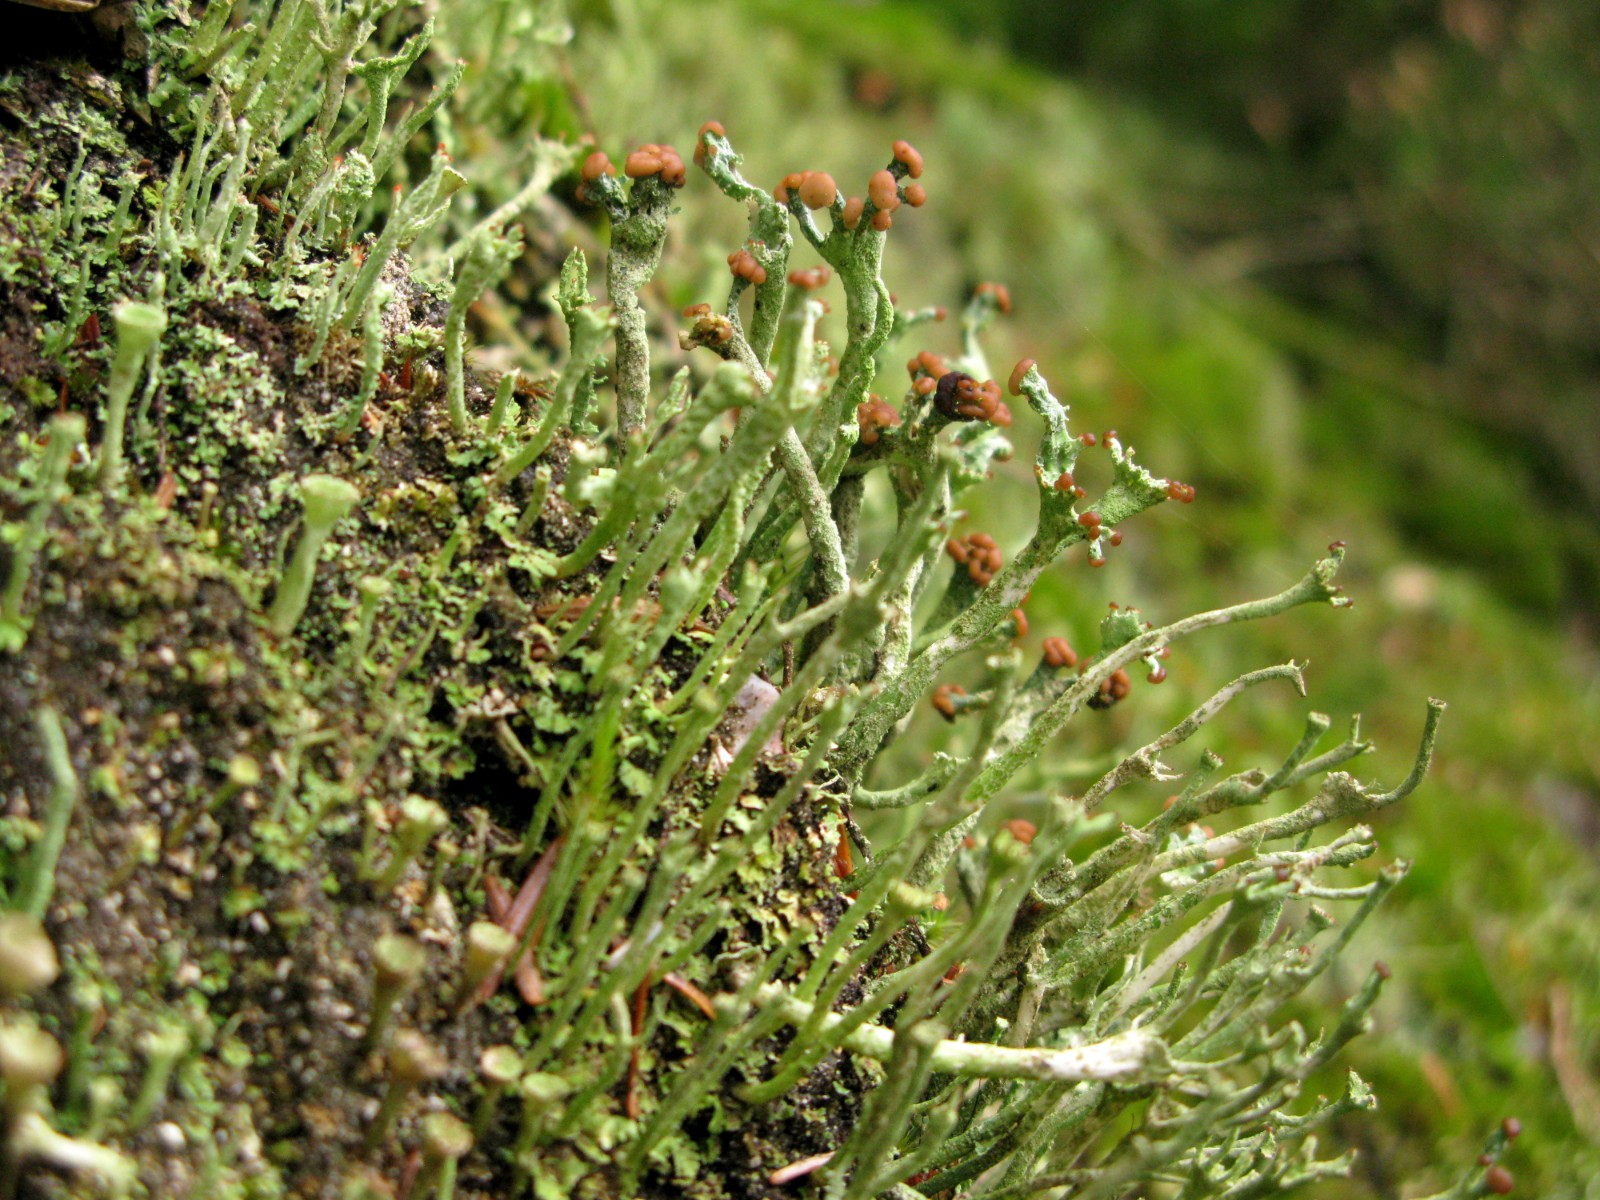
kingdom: Fungi
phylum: Ascomycota
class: Lecanoromycetes
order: Lecanorales
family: Cladoniaceae
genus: Cladonia
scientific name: Cladonia ochrochlora
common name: stød-bægerlav
